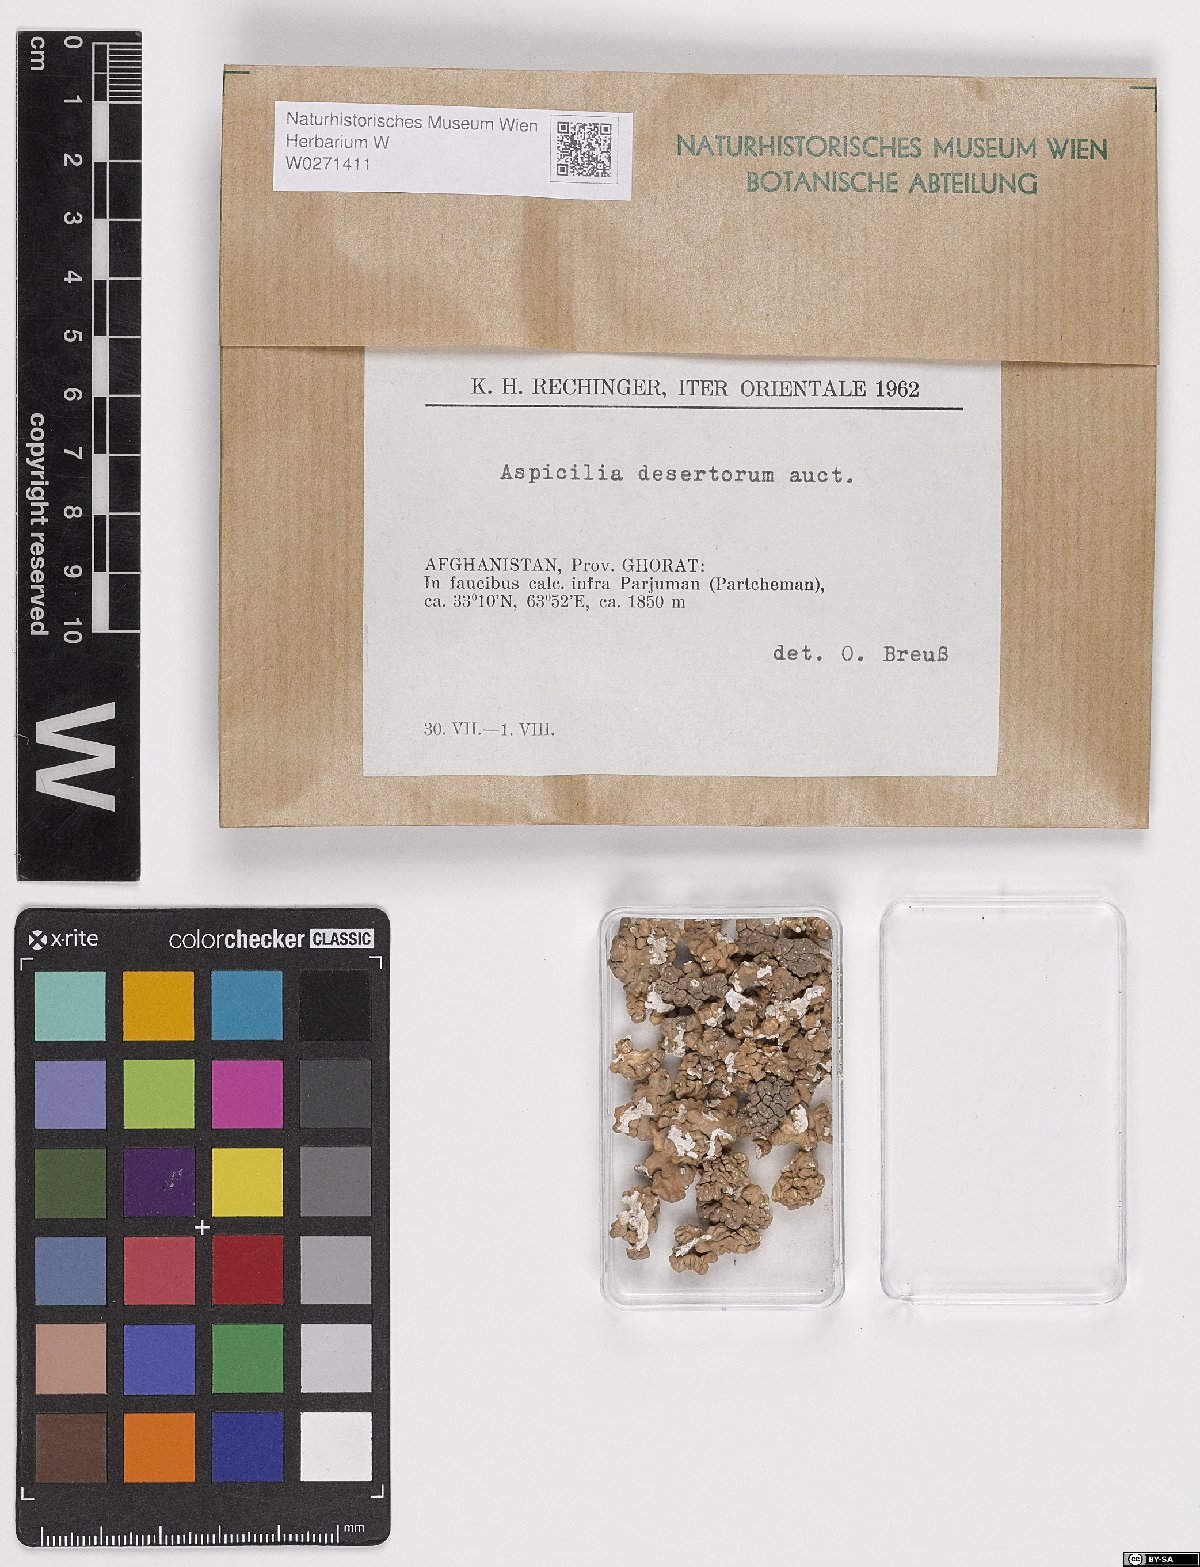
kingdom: Fungi
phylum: Ascomycota
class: Lecanoromycetes
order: Pertusariales
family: Megasporaceae
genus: Aspicilia
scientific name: Aspicilia desertorum
